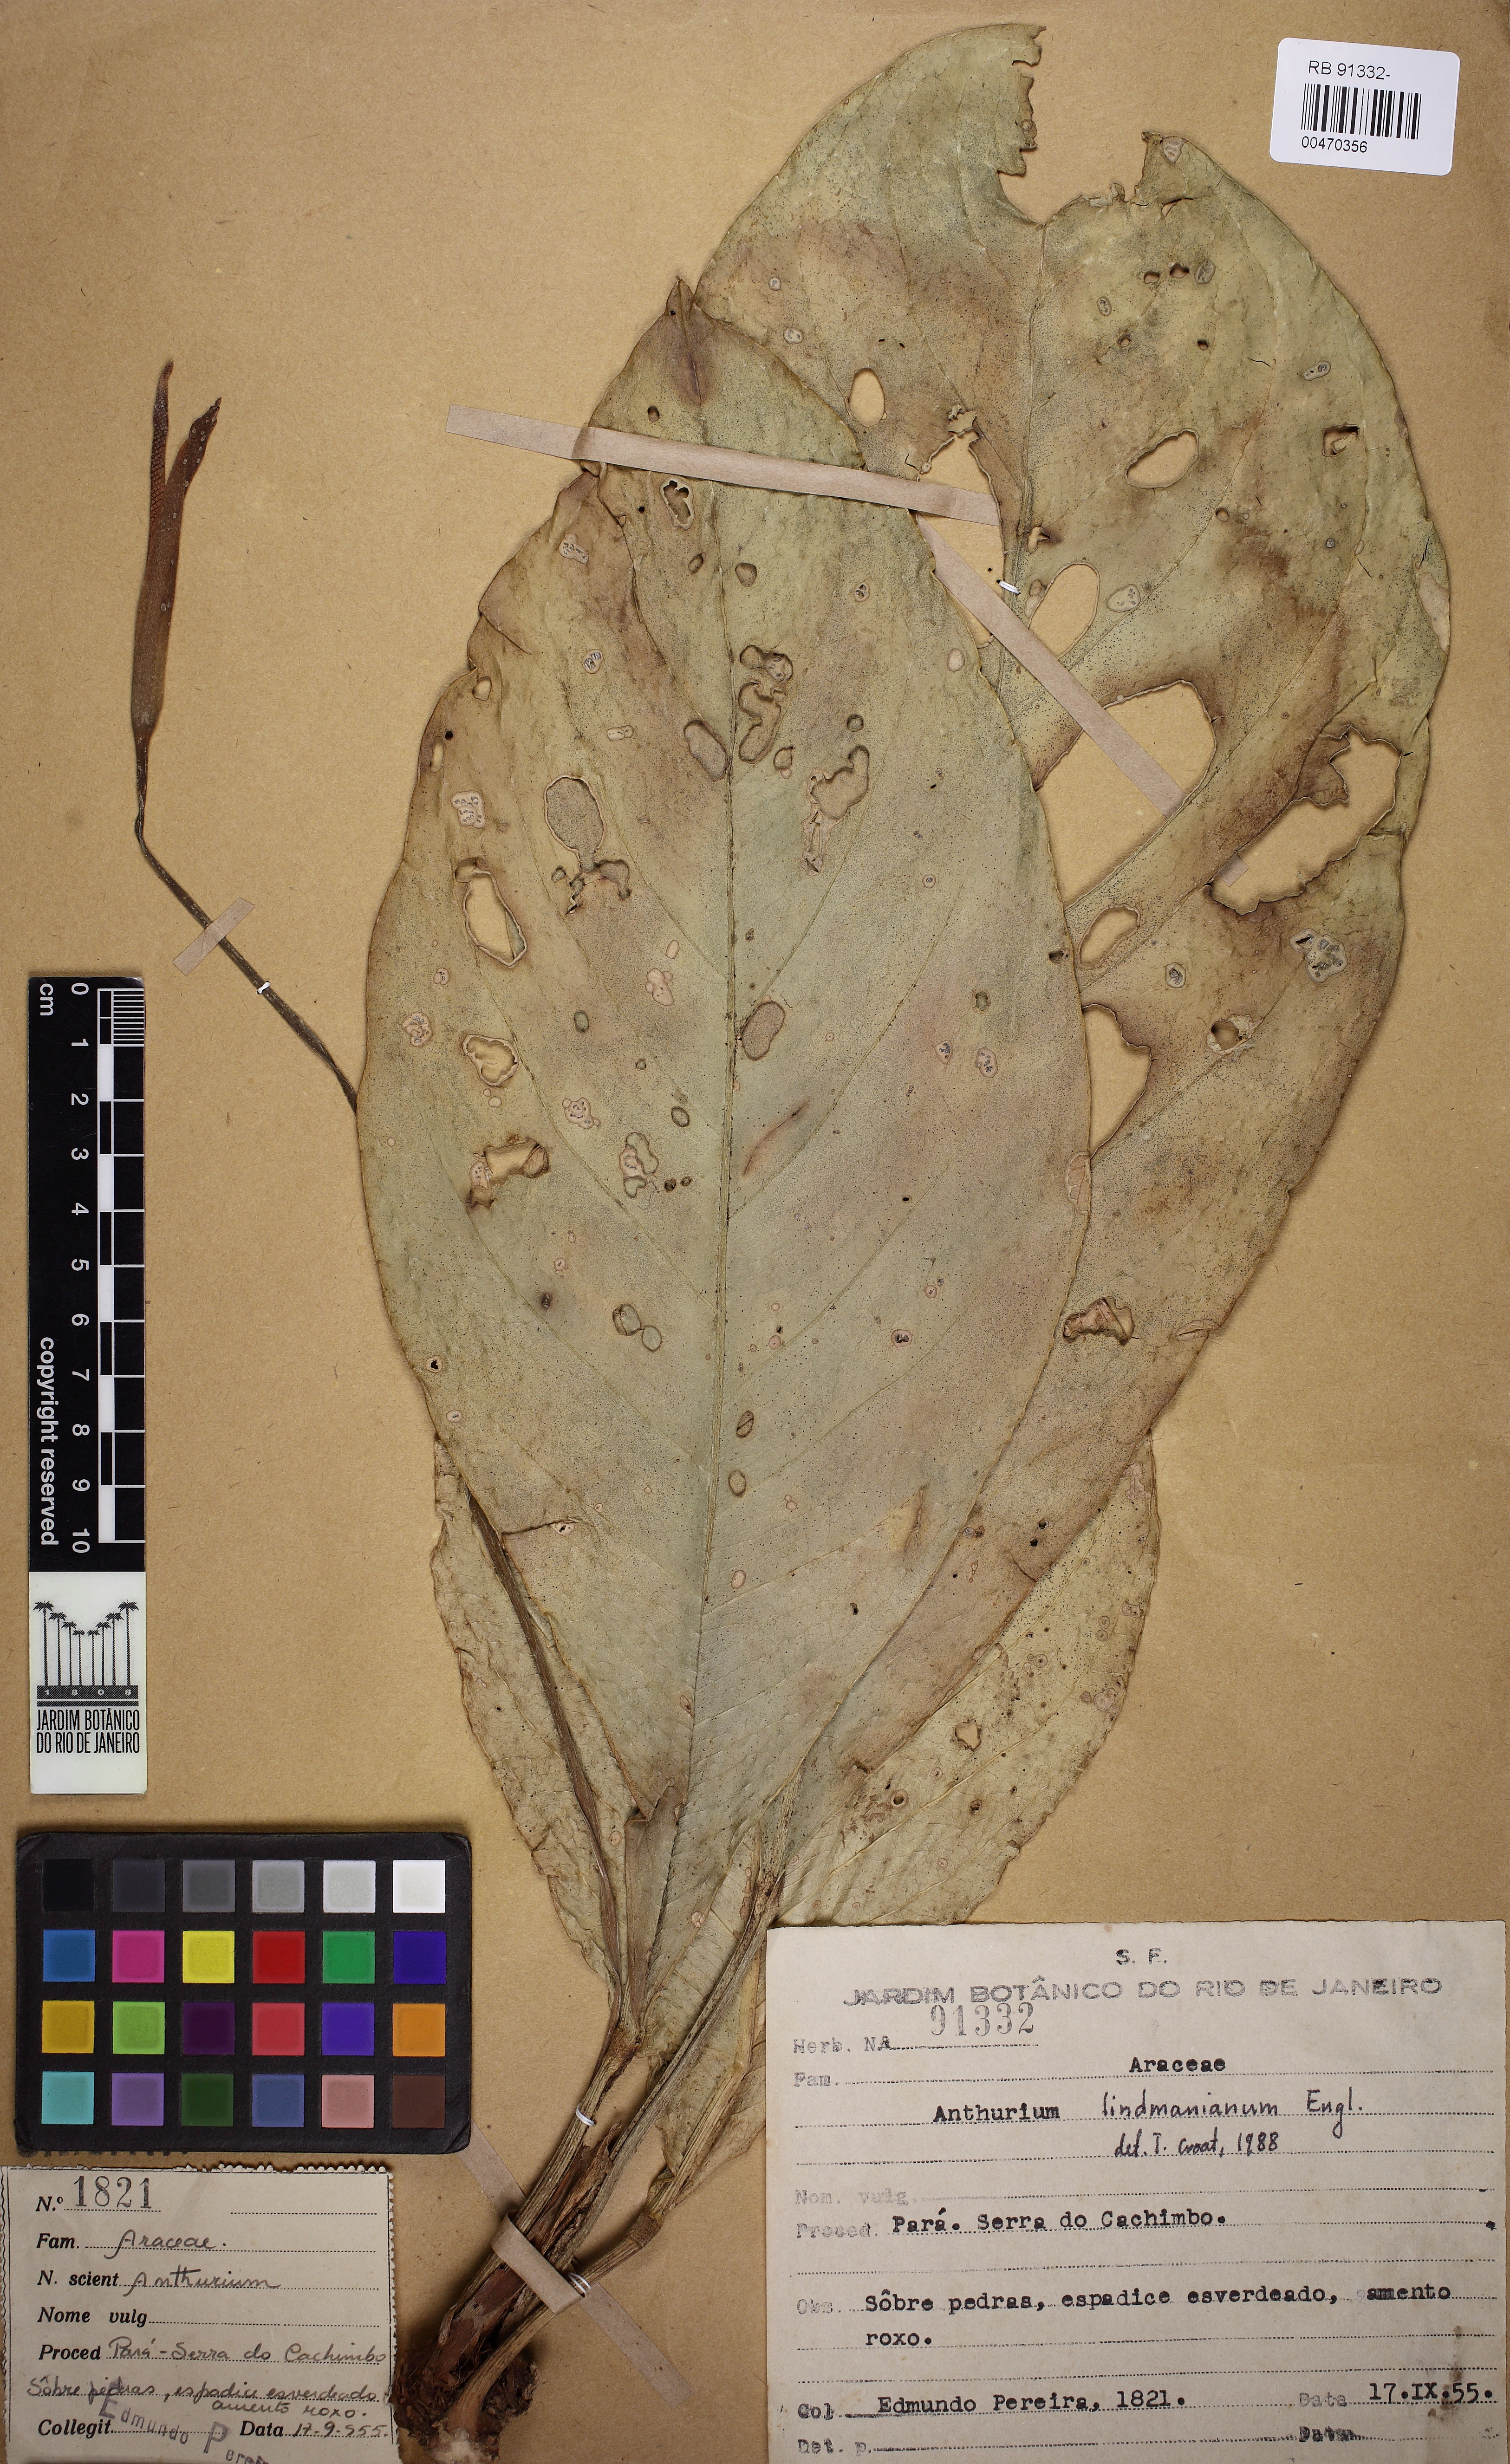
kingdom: Plantae
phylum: Tracheophyta
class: Liliopsida
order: Alismatales
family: Araceae
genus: Anthurium
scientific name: Anthurium lindmanianum
